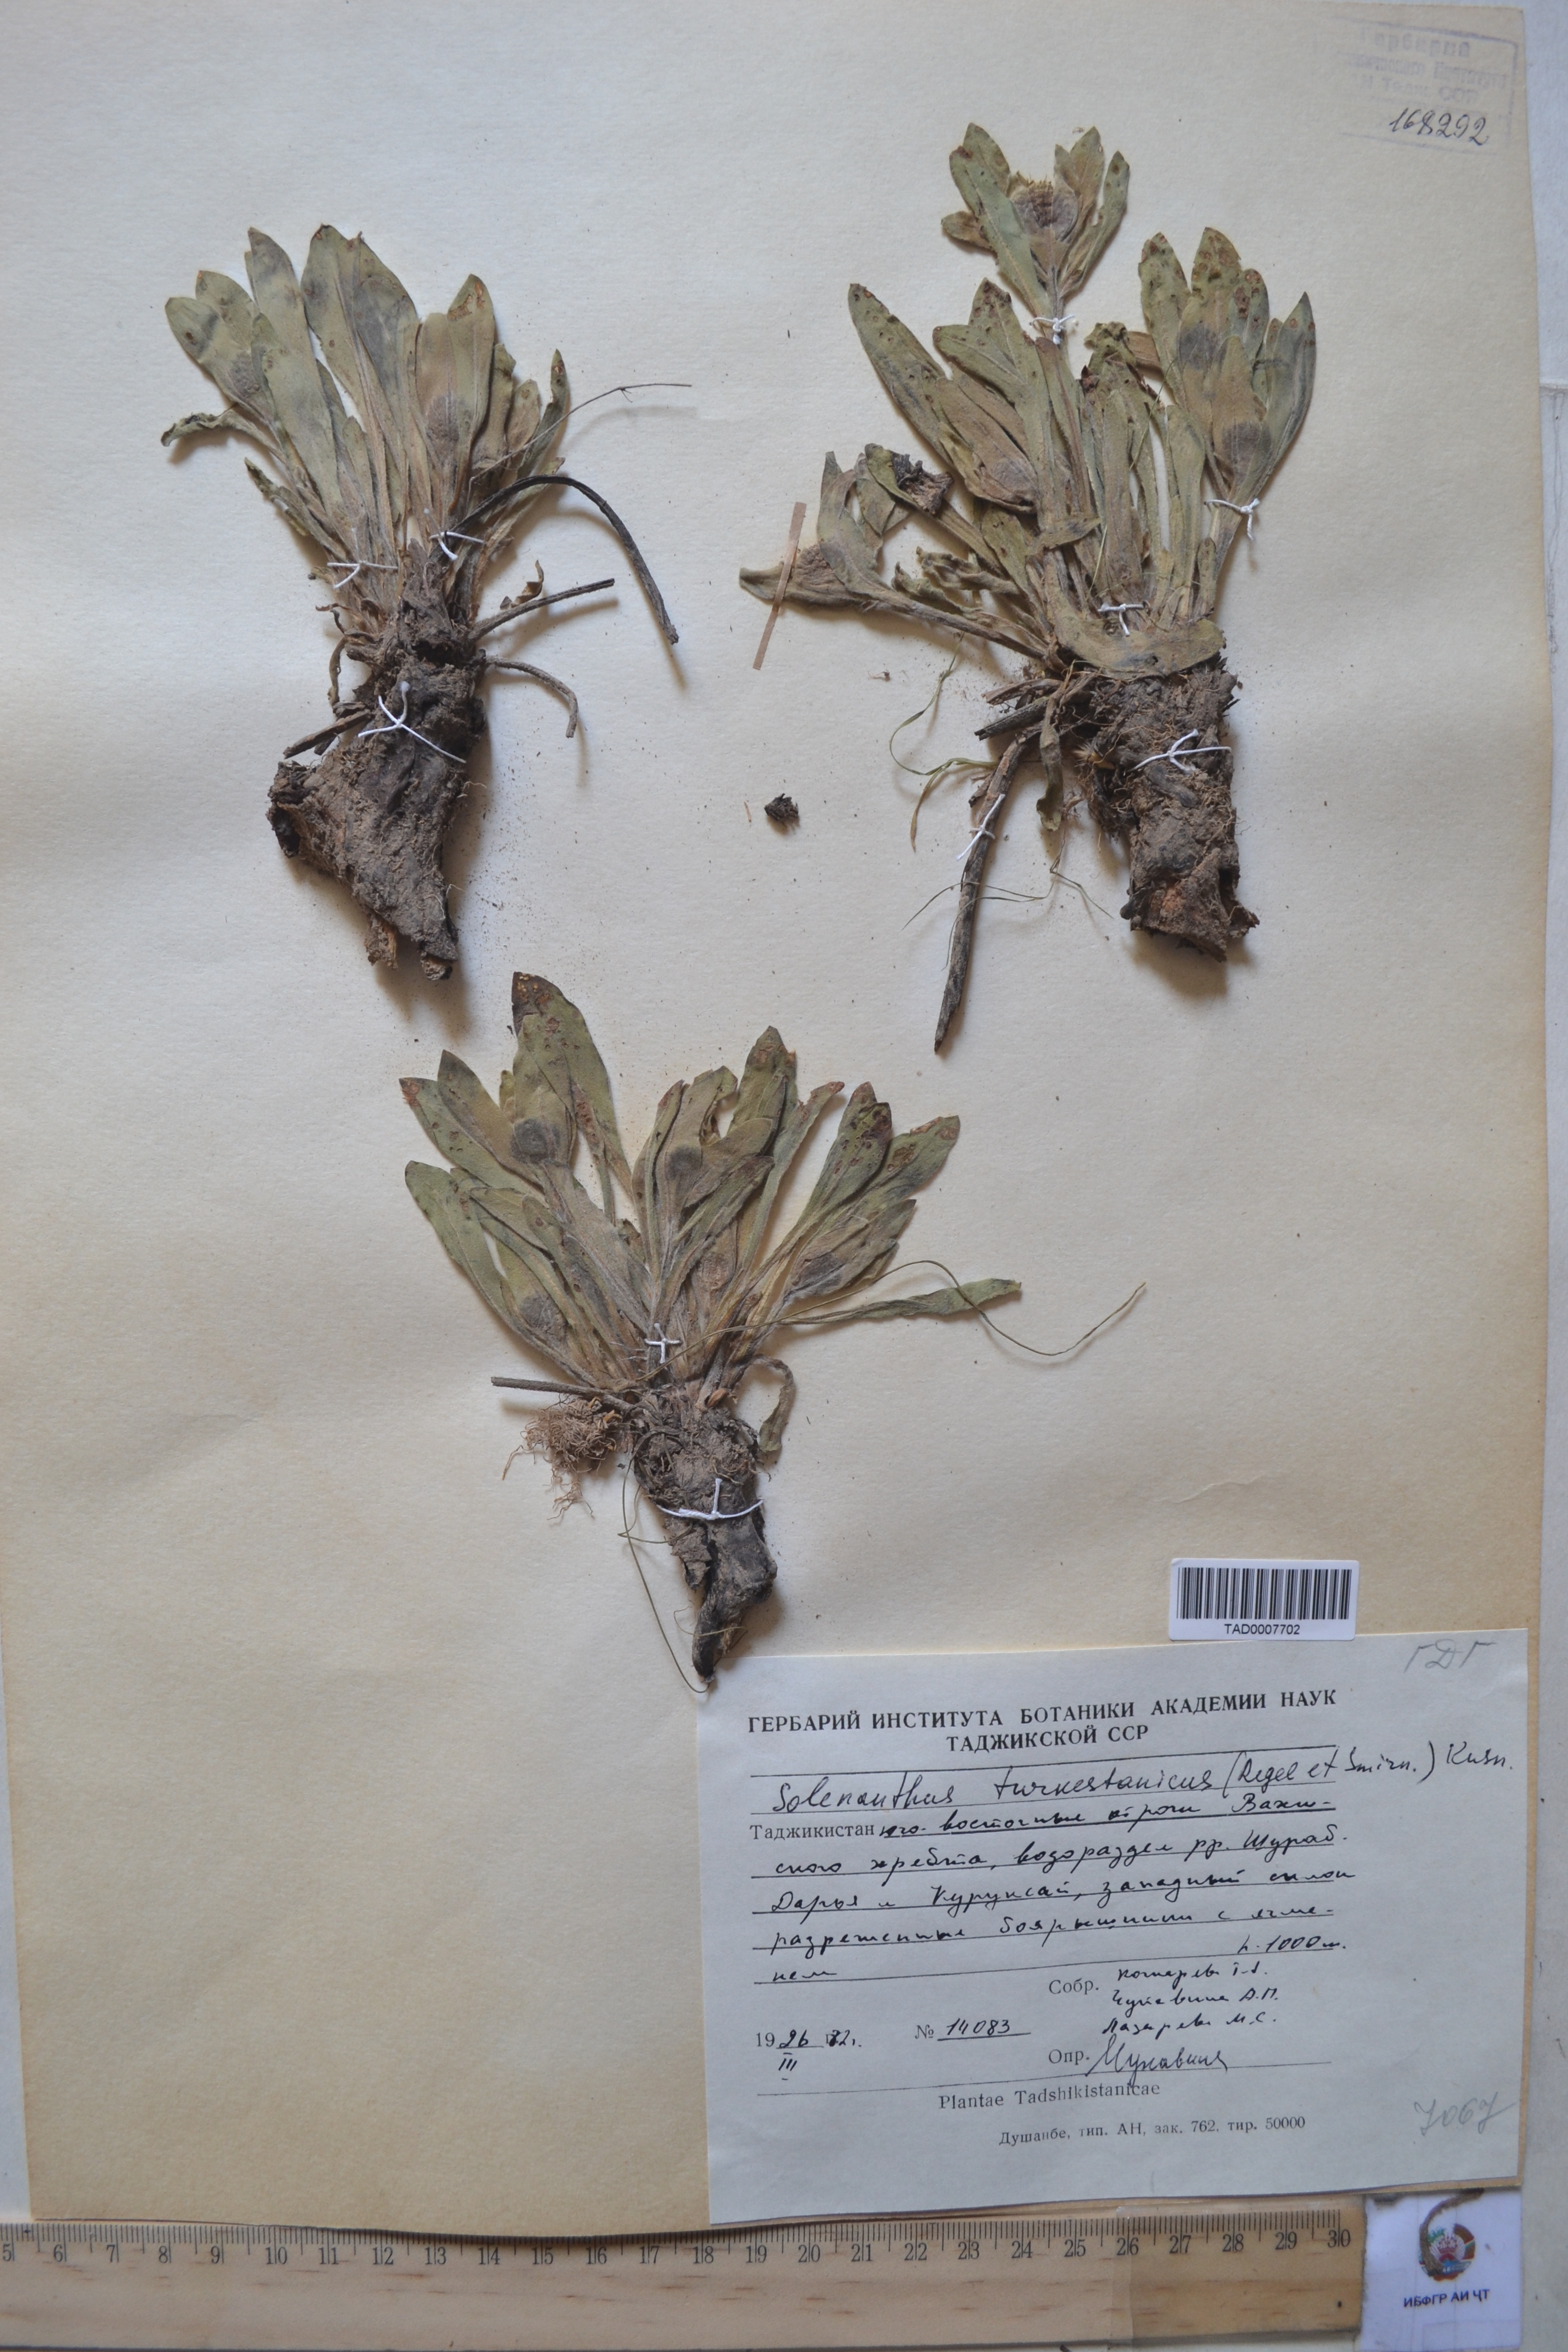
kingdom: Plantae
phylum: Tracheophyta
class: Magnoliopsida
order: Boraginales
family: Boraginaceae
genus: Solenanthus
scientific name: Solenanthus turkestanicus
